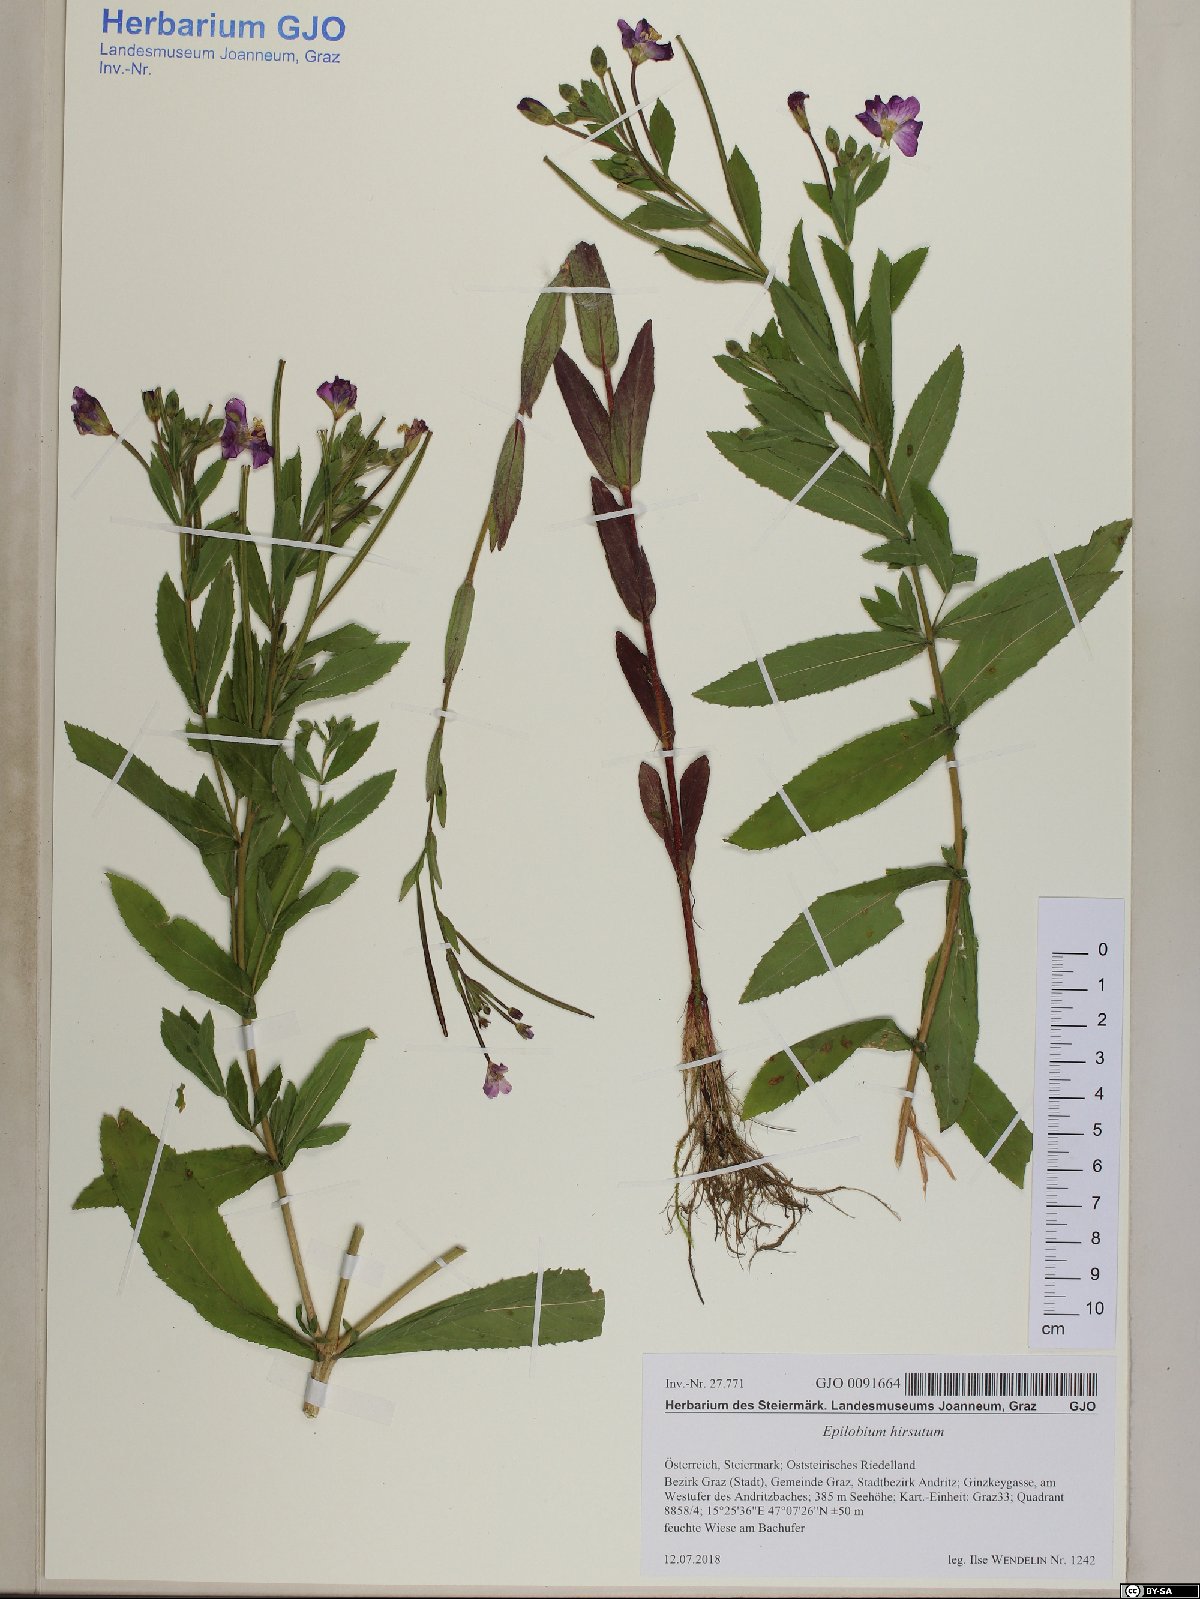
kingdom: Plantae
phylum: Tracheophyta
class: Magnoliopsida
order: Myrtales
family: Onagraceae
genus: Epilobium
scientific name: Epilobium hirsutum
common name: Great willowherb
